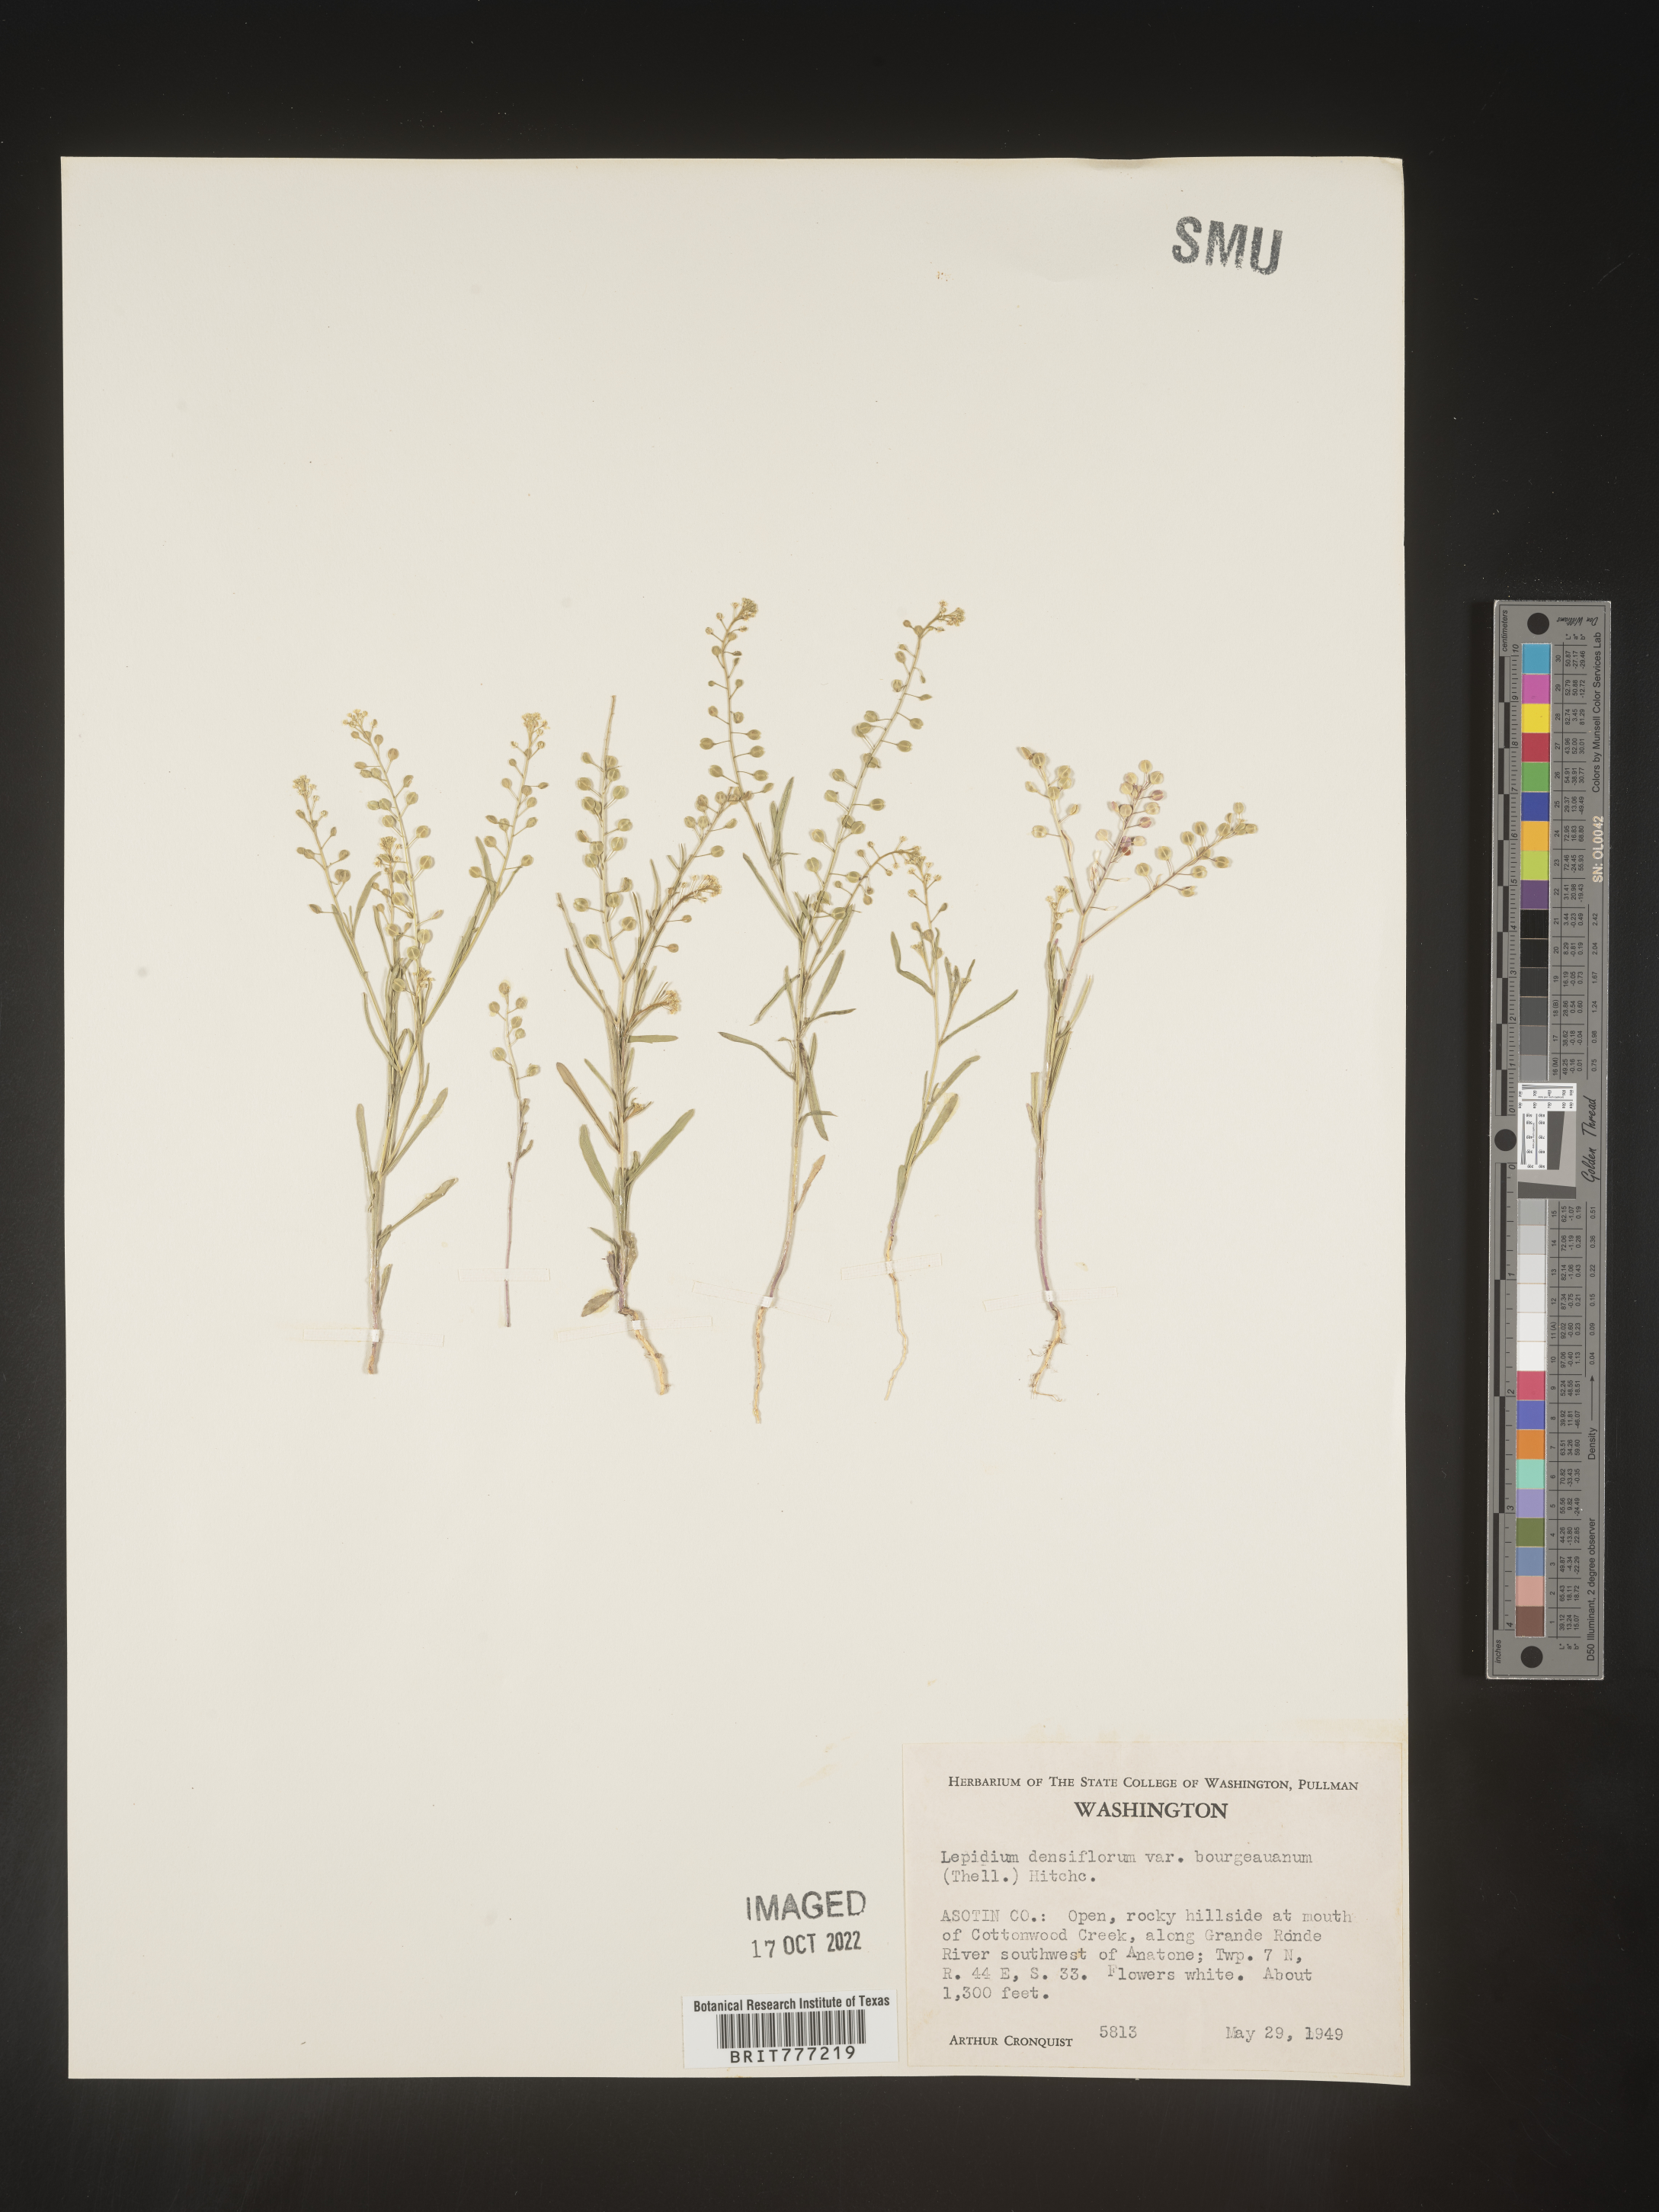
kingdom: Plantae
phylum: Tracheophyta
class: Magnoliopsida
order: Brassicales
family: Brassicaceae
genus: Lepidium
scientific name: Lepidium densiflorum
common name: Miner's pepperwort
